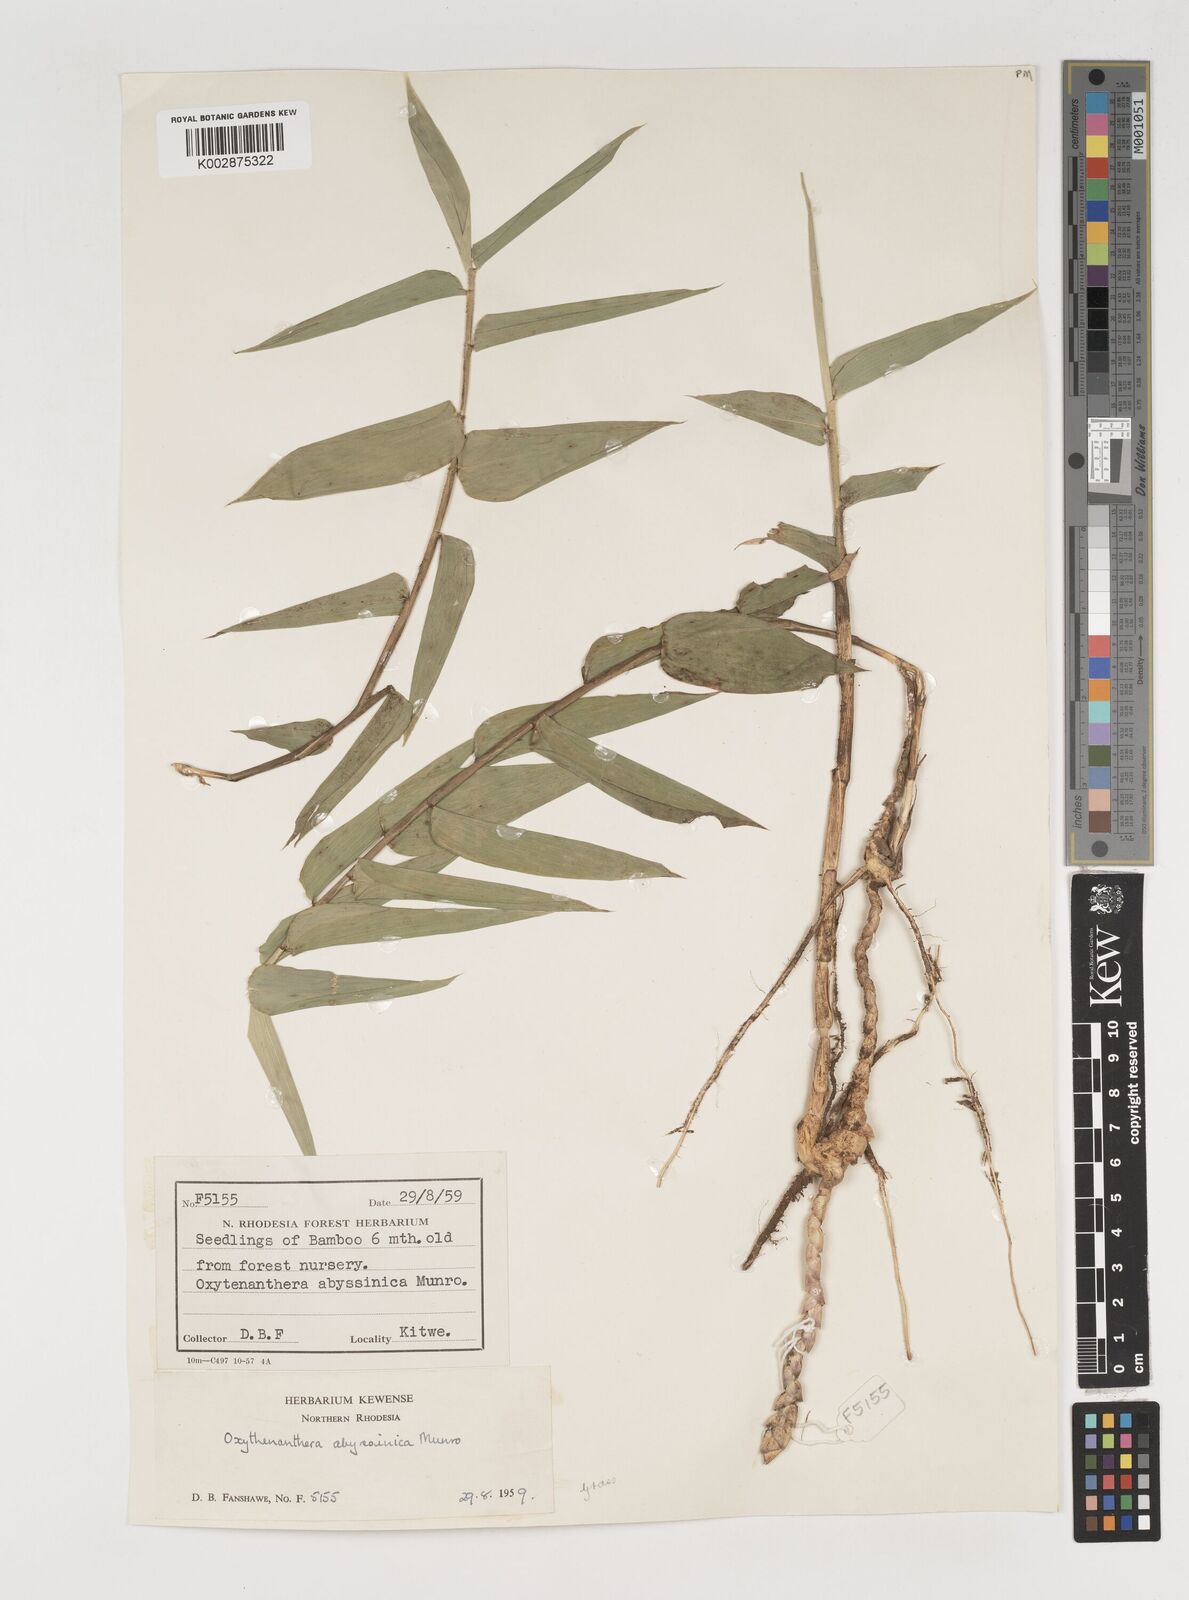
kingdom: Plantae
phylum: Tracheophyta
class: Liliopsida
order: Poales
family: Poaceae
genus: Oxytenanthera
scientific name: Oxytenanthera abyssinica
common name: Wine bamboo
